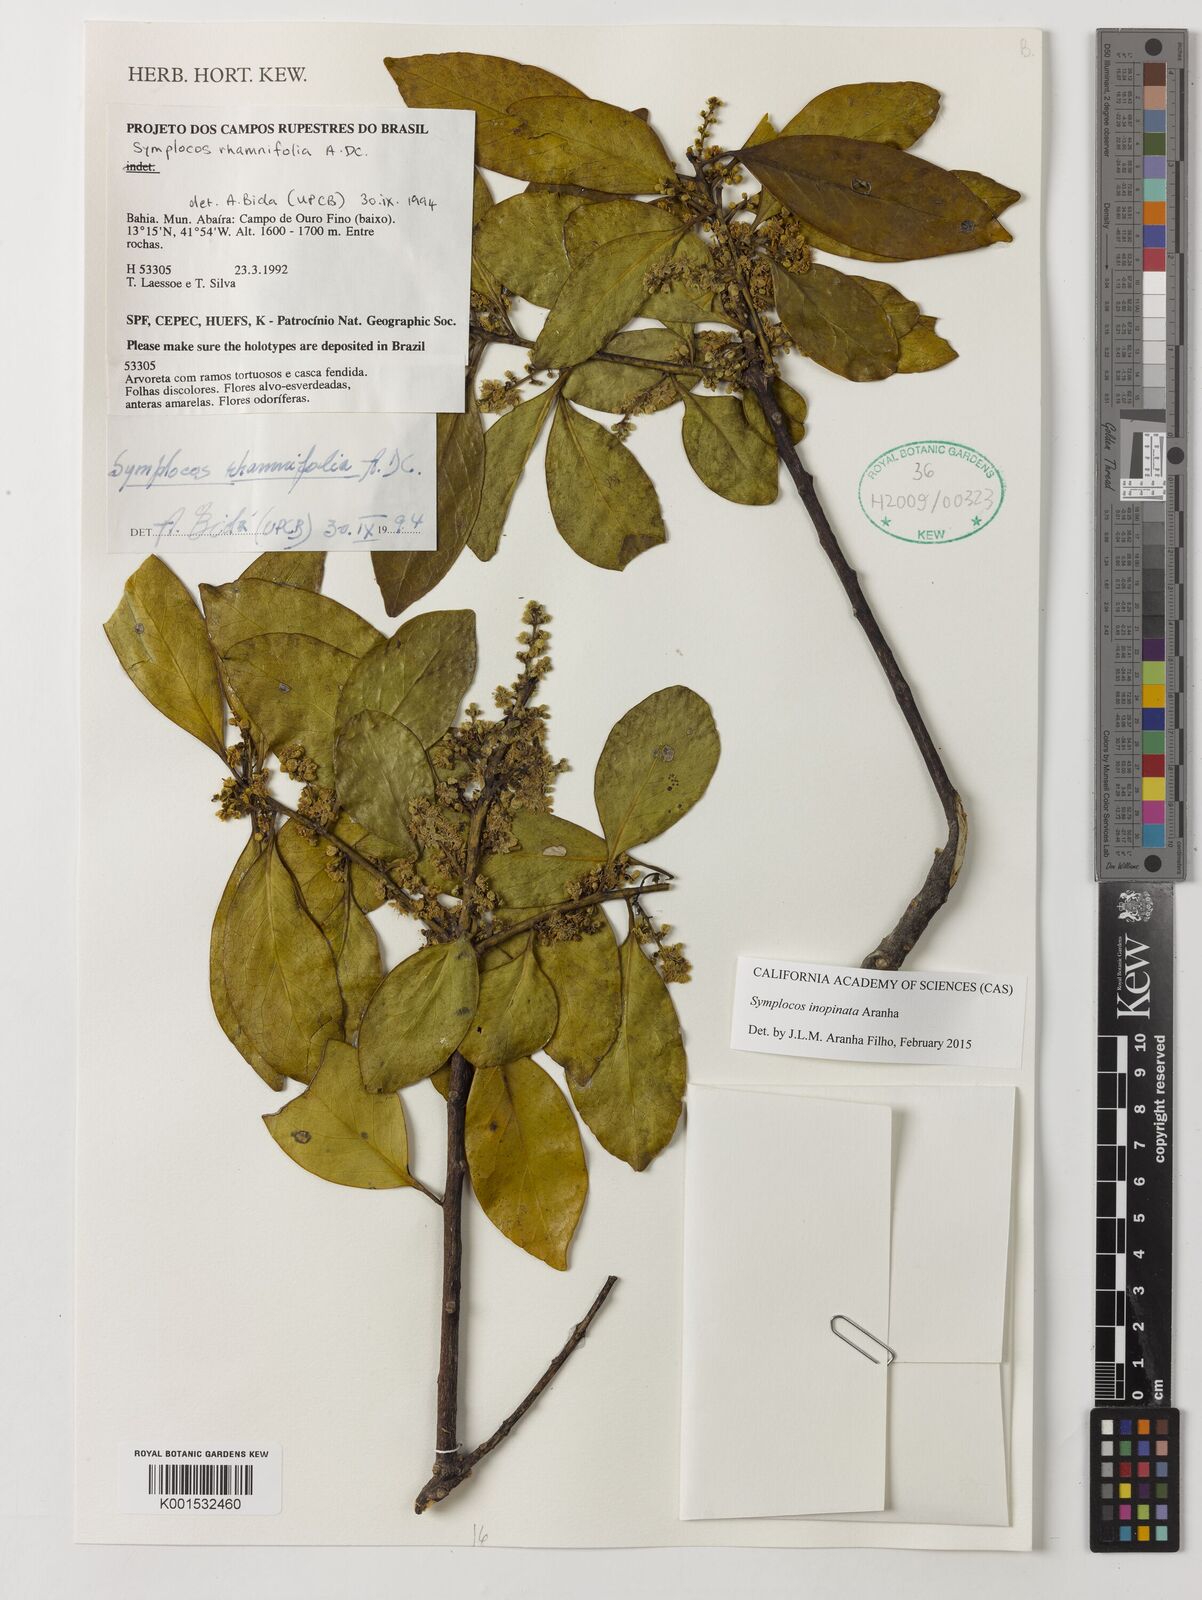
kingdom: Plantae
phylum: Tracheophyta
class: Magnoliopsida
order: Ericales
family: Symplocaceae
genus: Symplocos
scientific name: Symplocos inopinata
